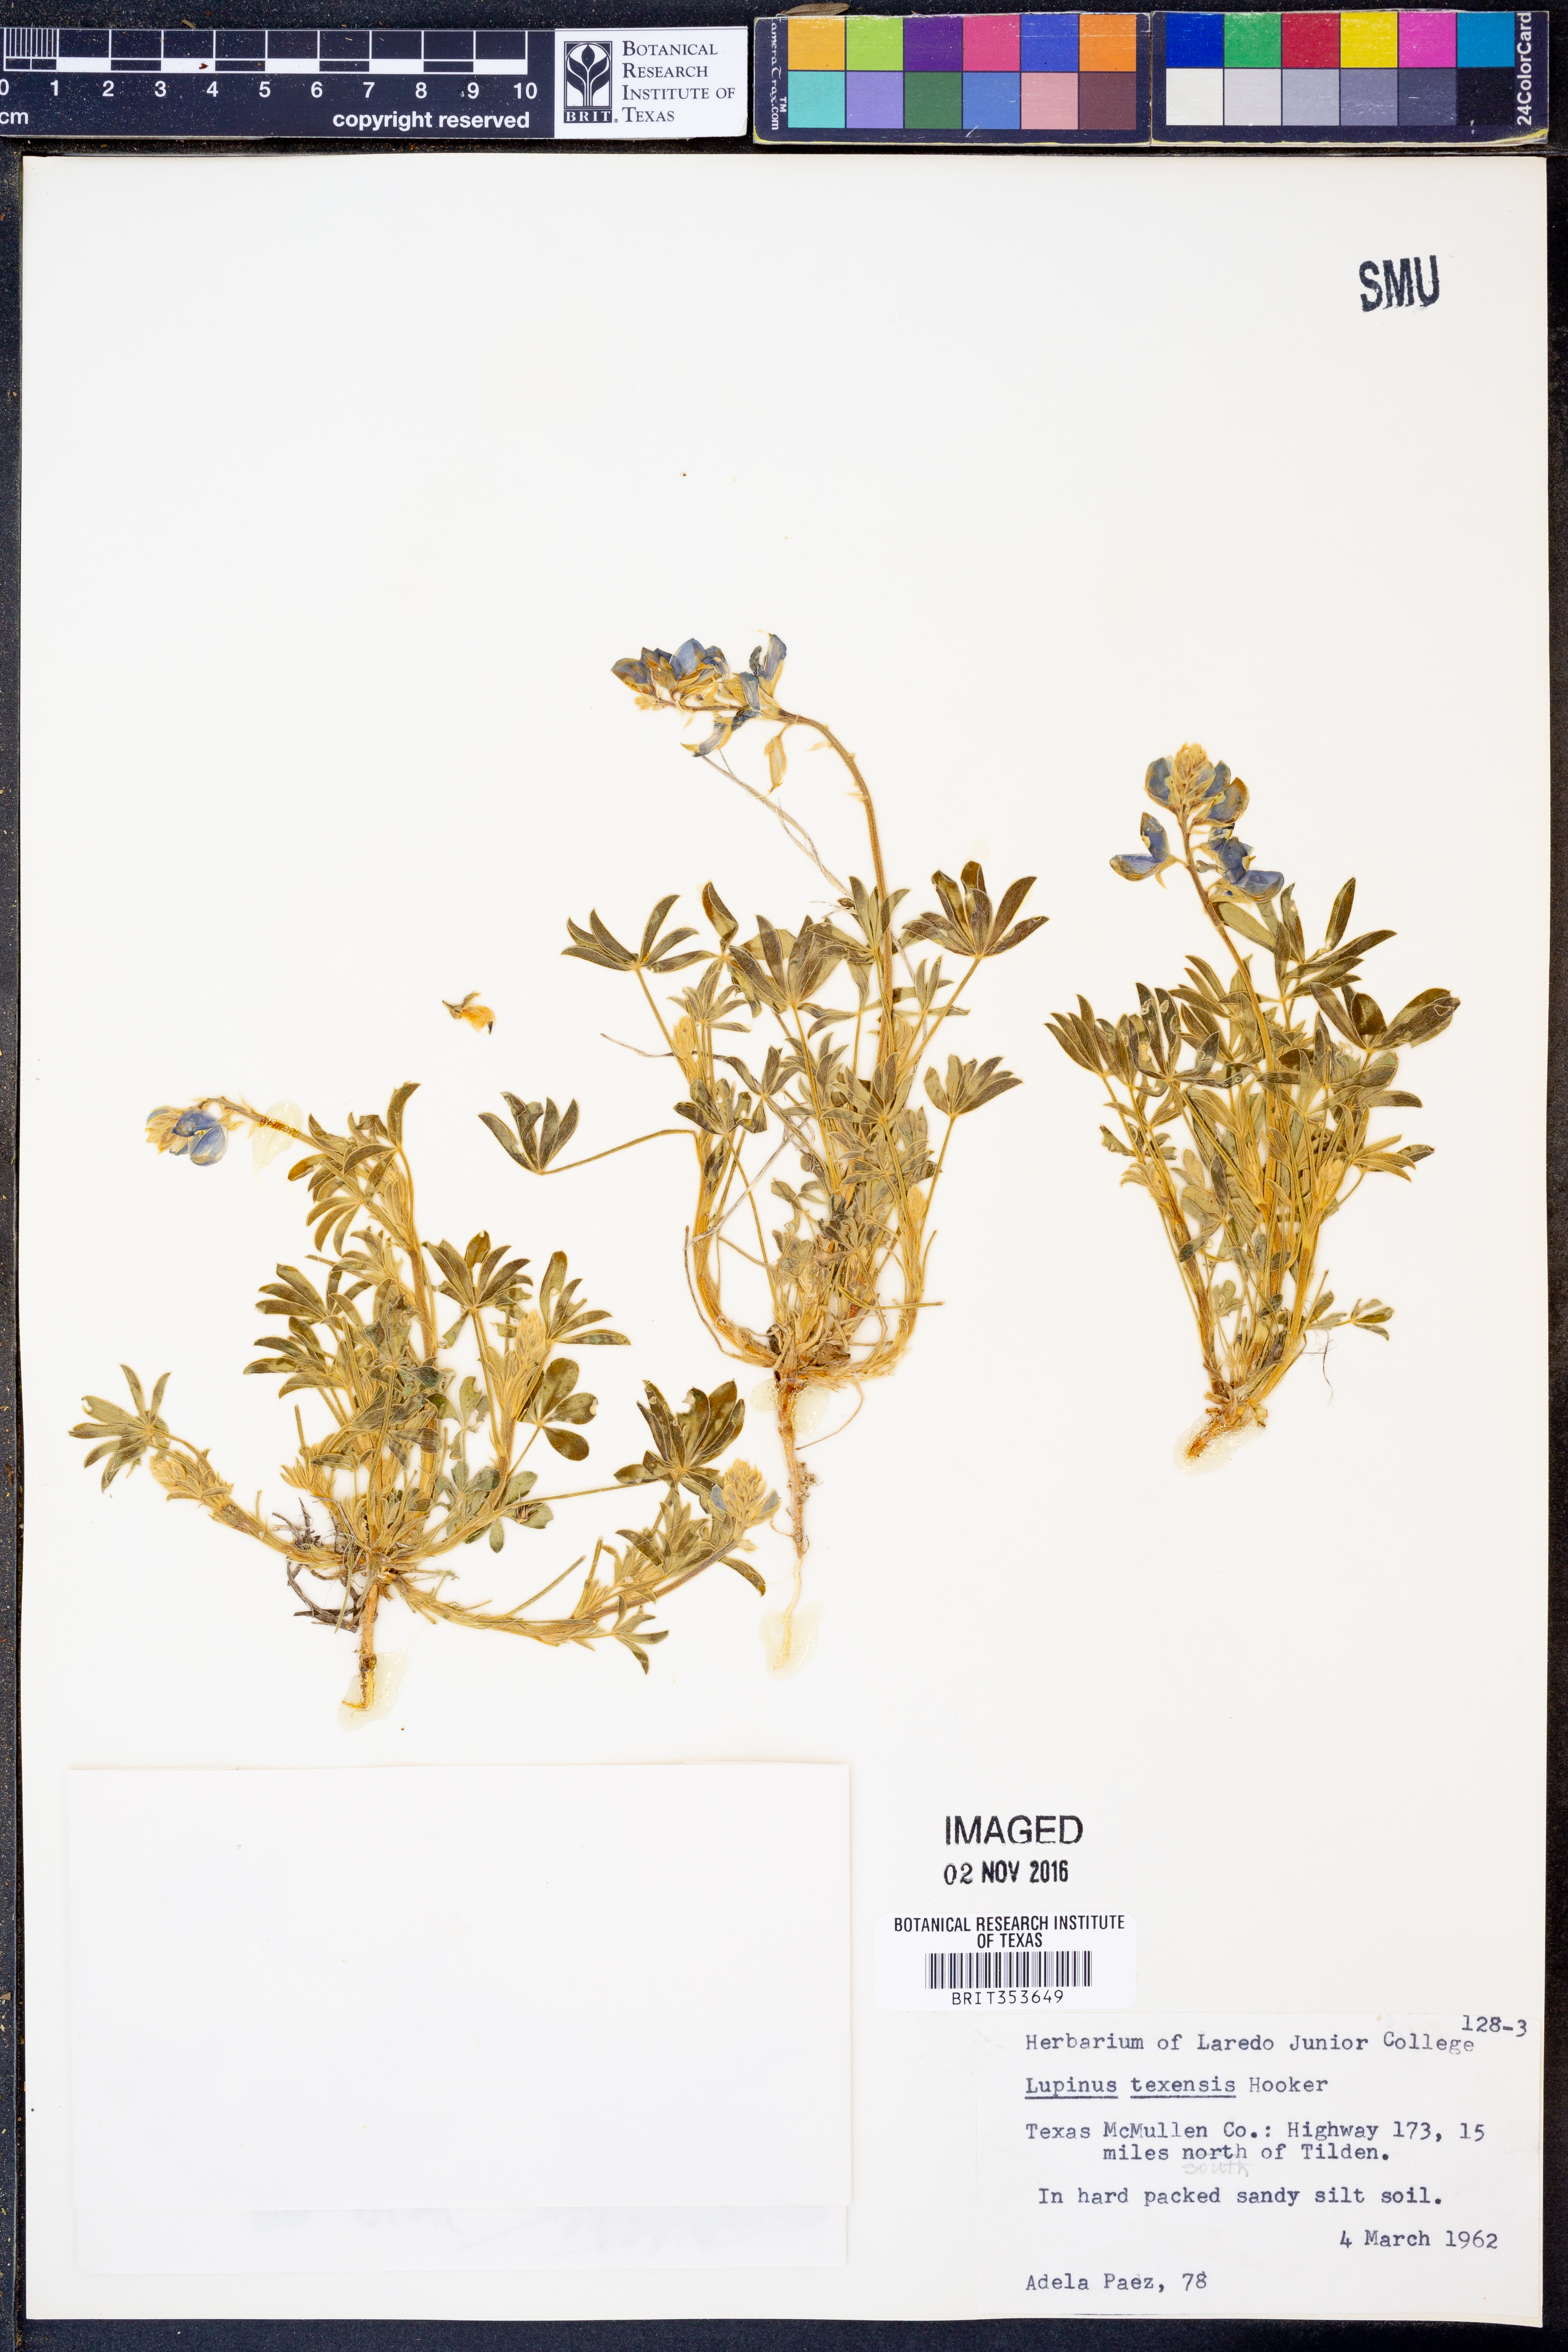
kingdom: Plantae
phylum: Tracheophyta
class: Magnoliopsida
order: Fabales
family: Fabaceae
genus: Lupinus
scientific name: Lupinus texensis
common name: Texas bluebonnet
